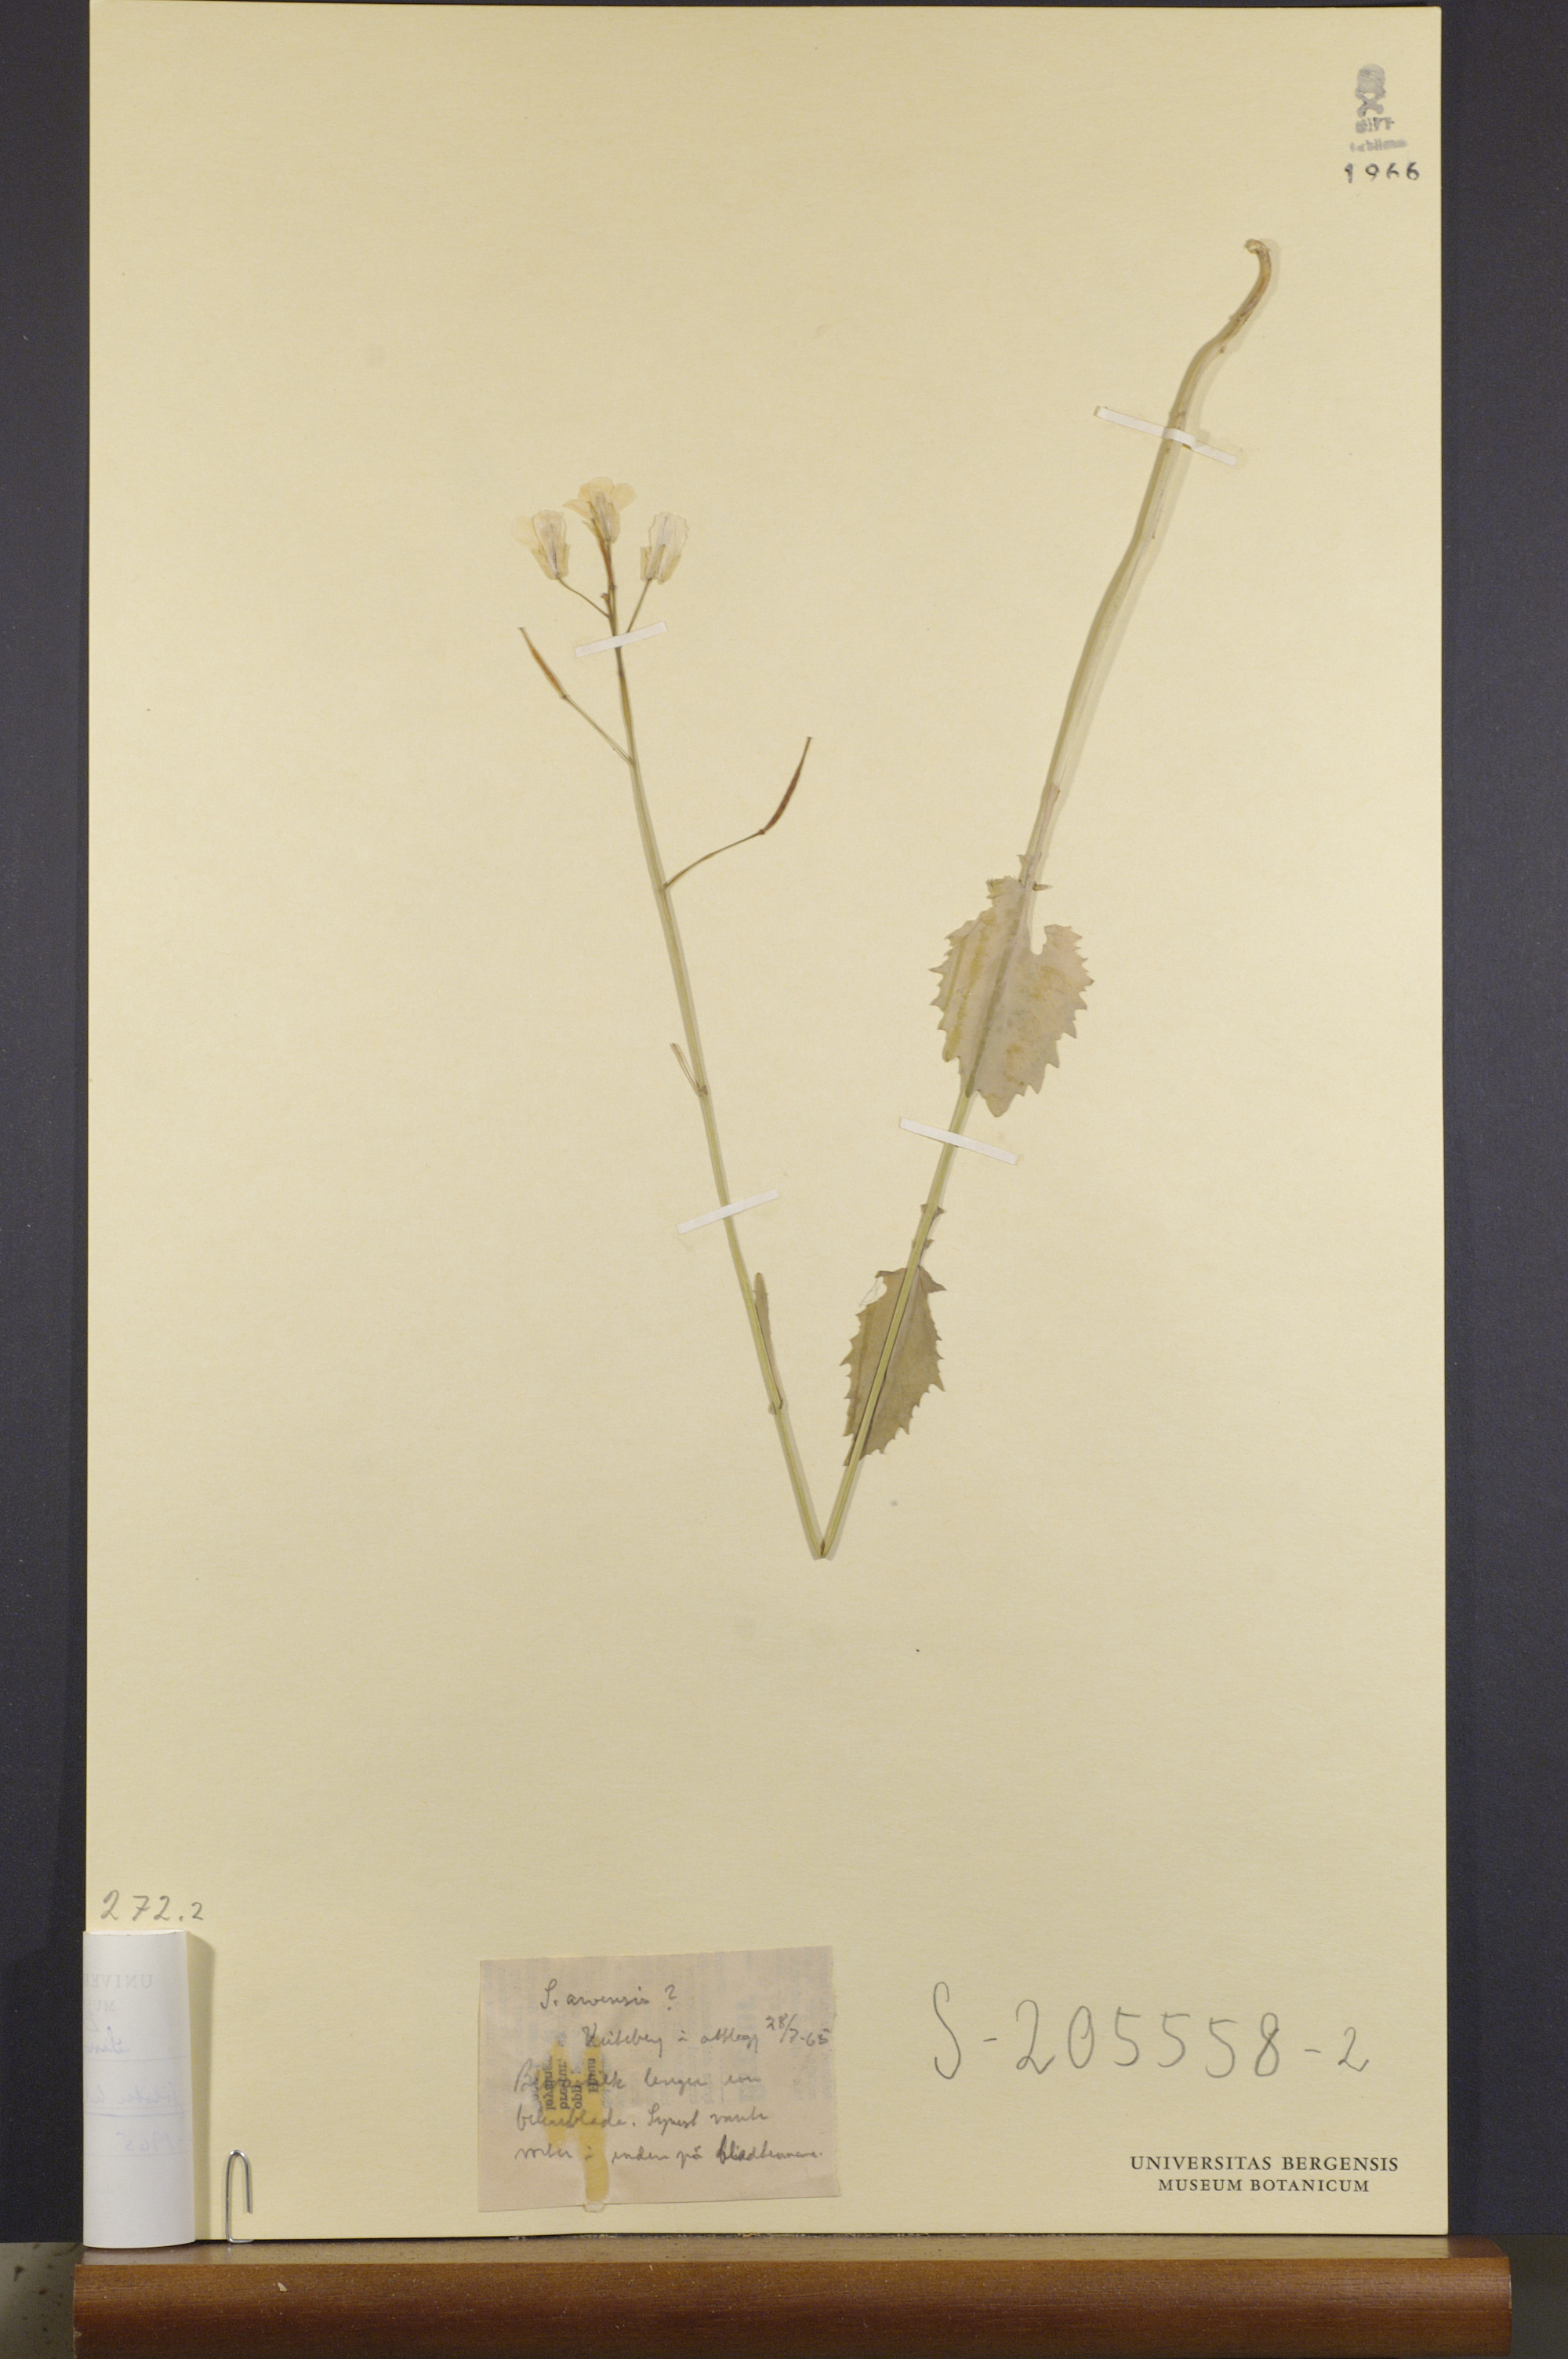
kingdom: Plantae
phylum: Tracheophyta
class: Magnoliopsida
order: Brassicales
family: Brassicaceae
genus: Brassica
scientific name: Brassica napus
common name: Rape
